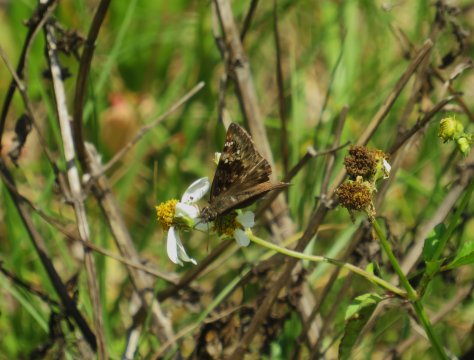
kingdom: Animalia
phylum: Arthropoda
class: Insecta
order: Lepidoptera
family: Hesperiidae
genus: Gesta
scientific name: Gesta
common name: Horace's Duskywing
